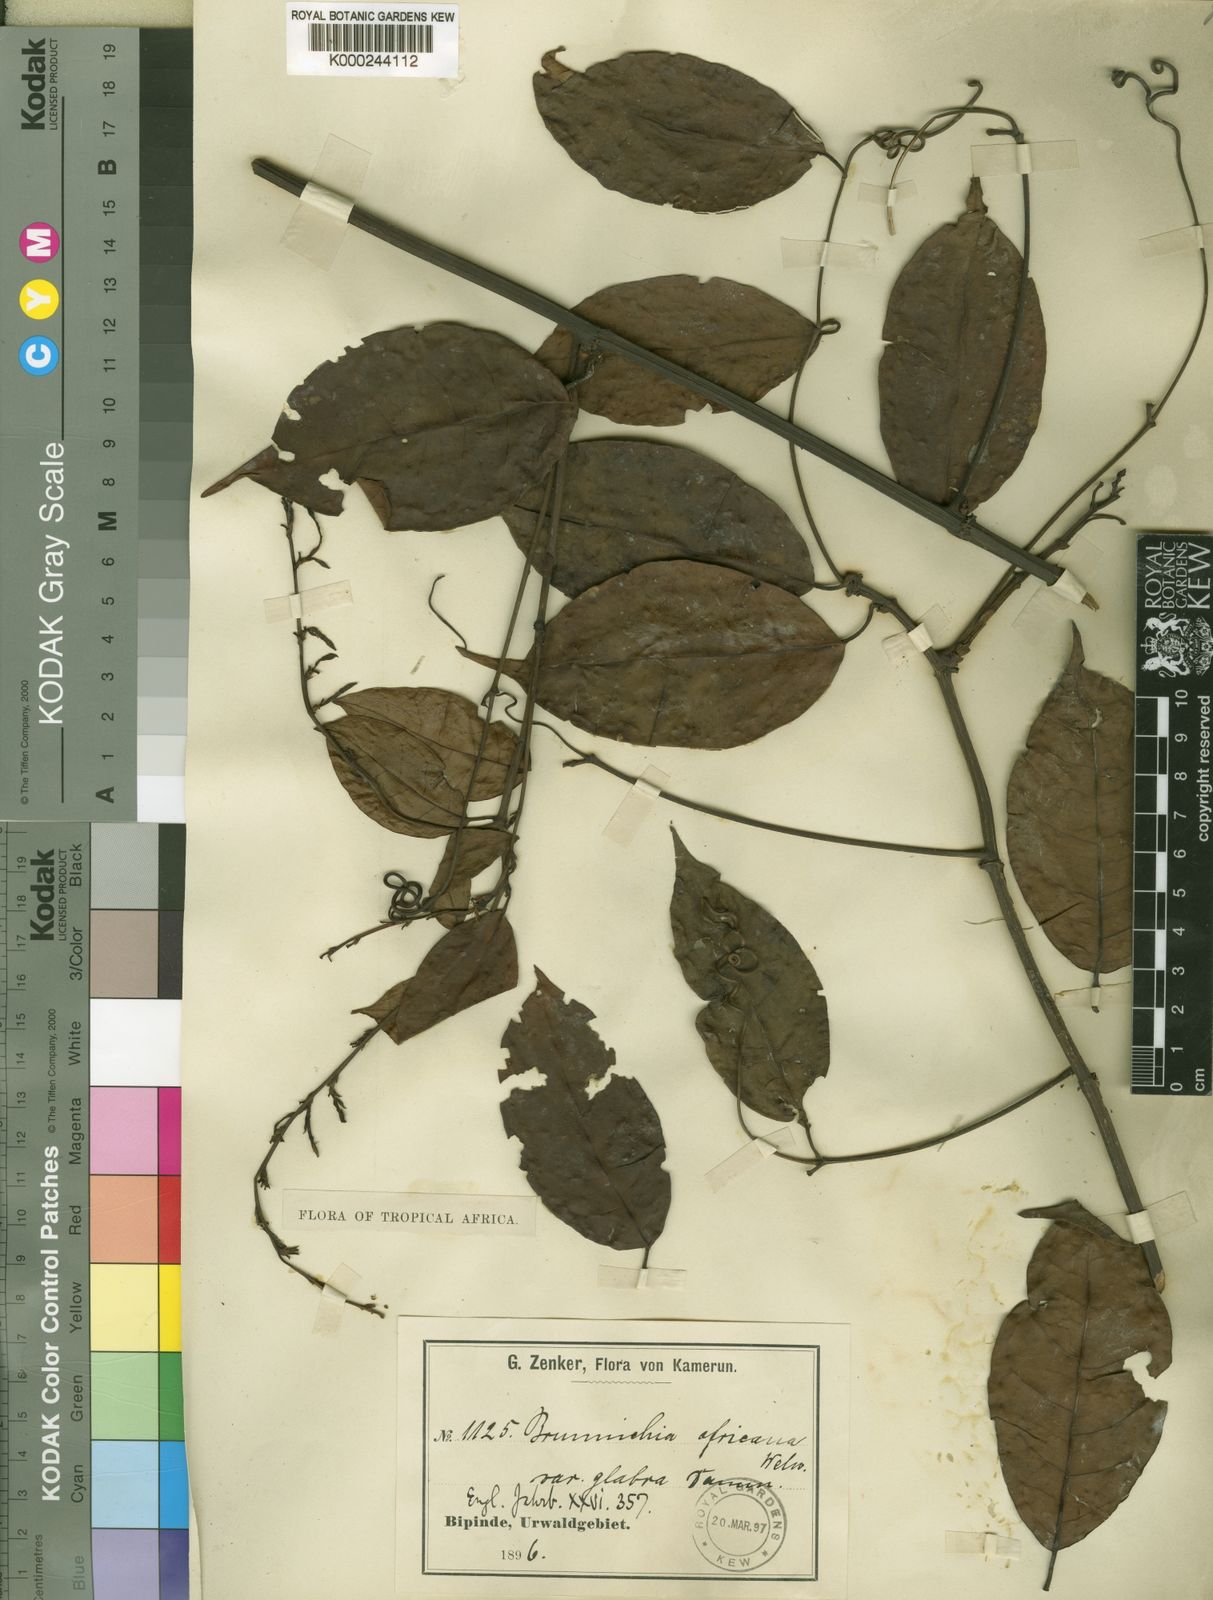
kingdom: Plantae
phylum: Tracheophyta
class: Magnoliopsida
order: Caryophyllales
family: Polygonaceae
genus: Afrobrunnichia
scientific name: Afrobrunnichia erecta
